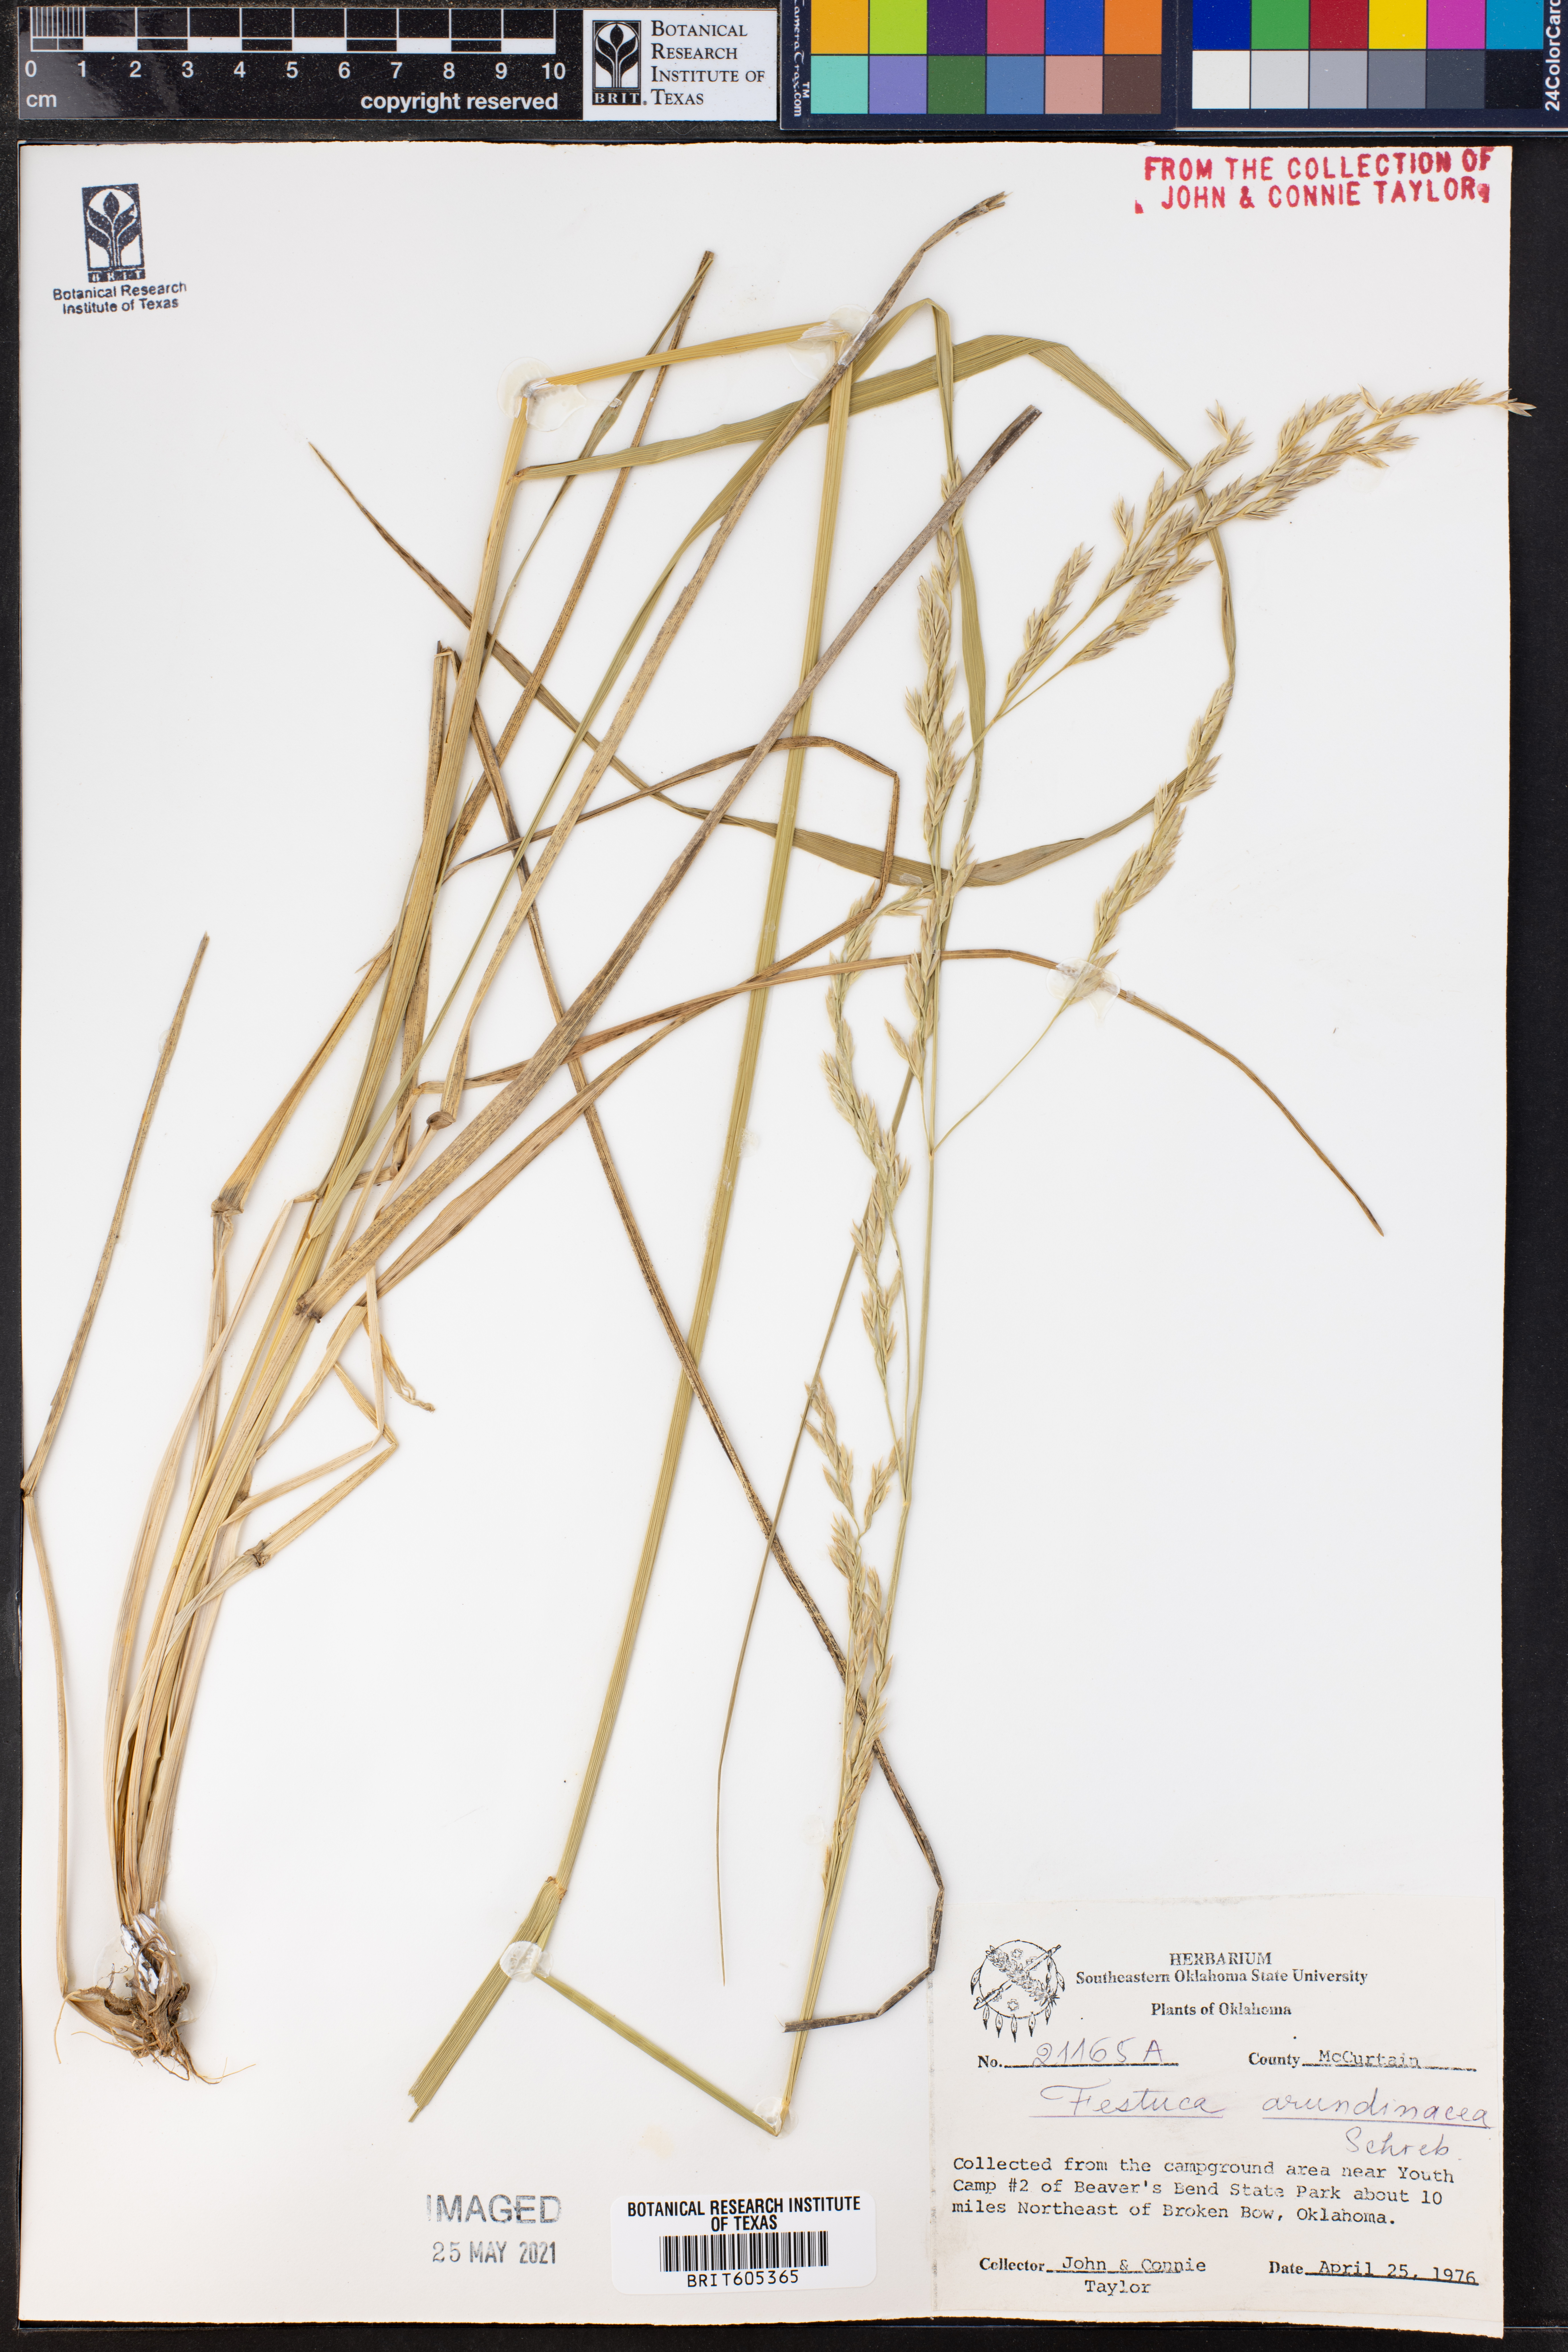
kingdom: Plantae
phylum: Tracheophyta
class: Liliopsida
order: Poales
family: Poaceae
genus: Lolium
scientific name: Lolium arundinaceum
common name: Reed fescue
